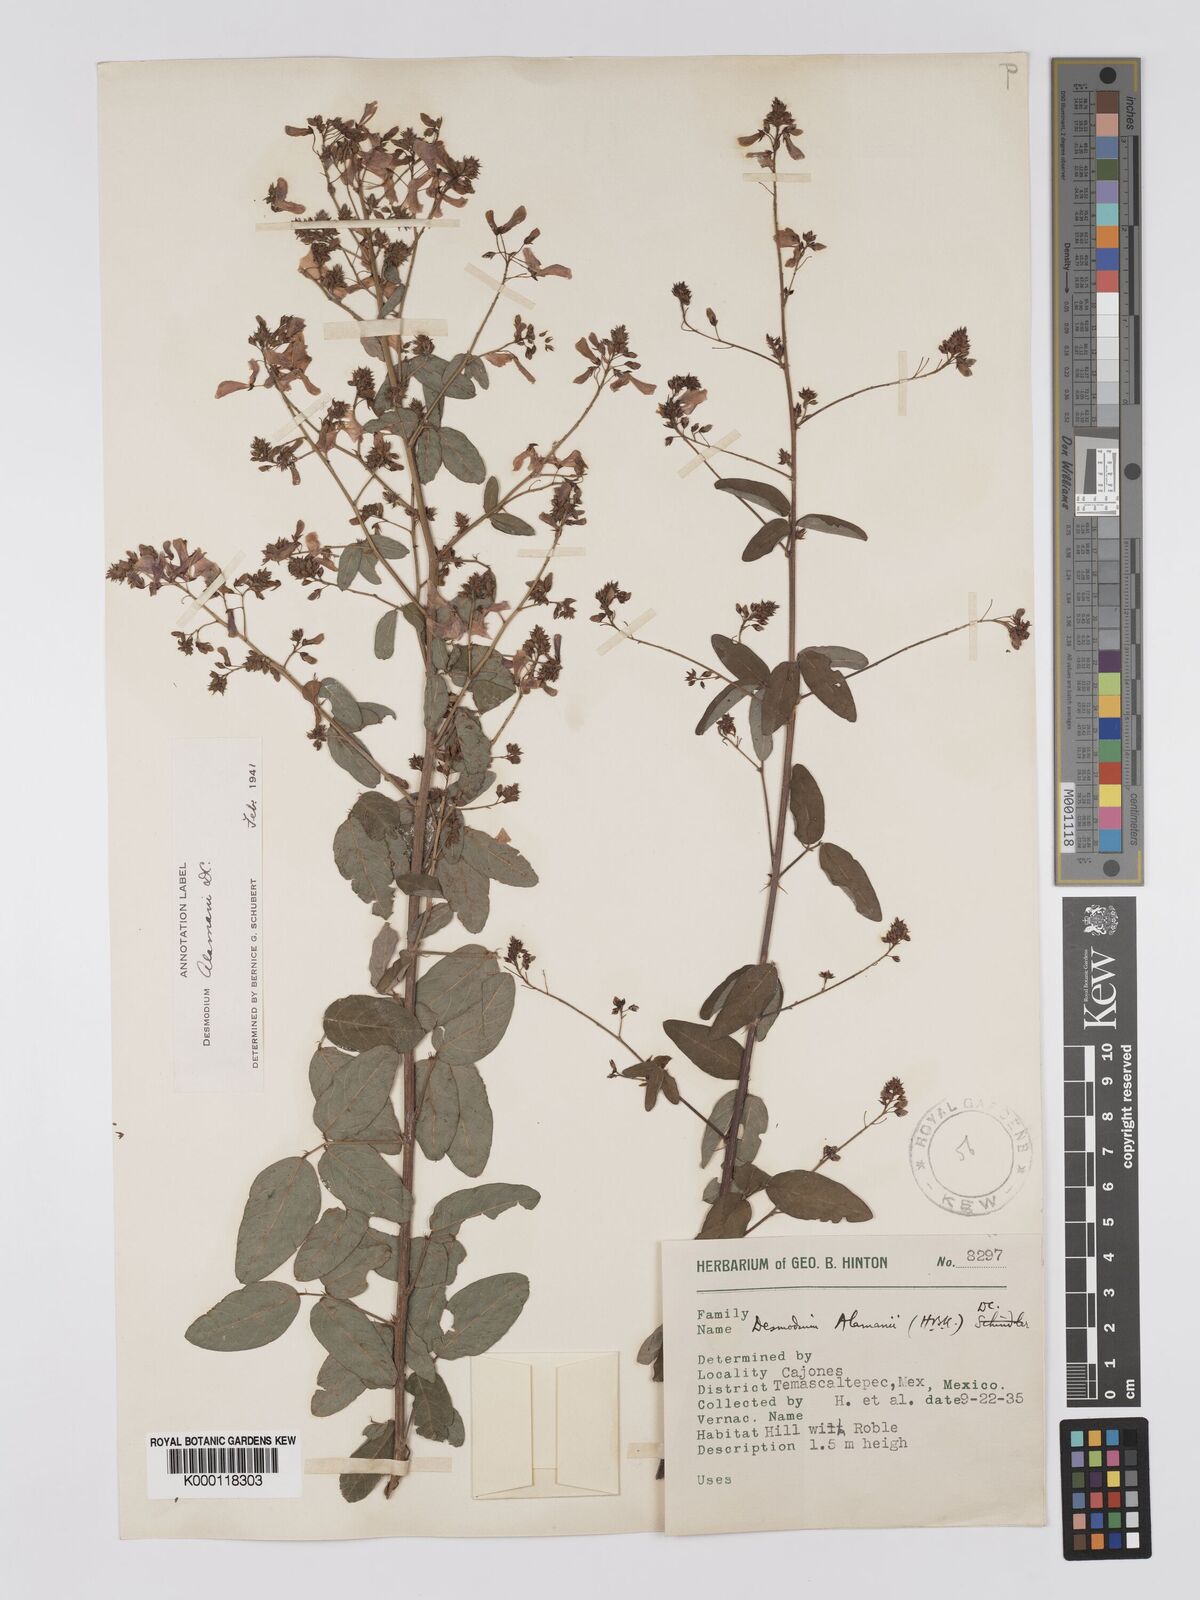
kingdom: Plantae
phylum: Tracheophyta
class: Magnoliopsida
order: Fabales
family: Fabaceae
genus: Desmodium
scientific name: Desmodium alamanii
